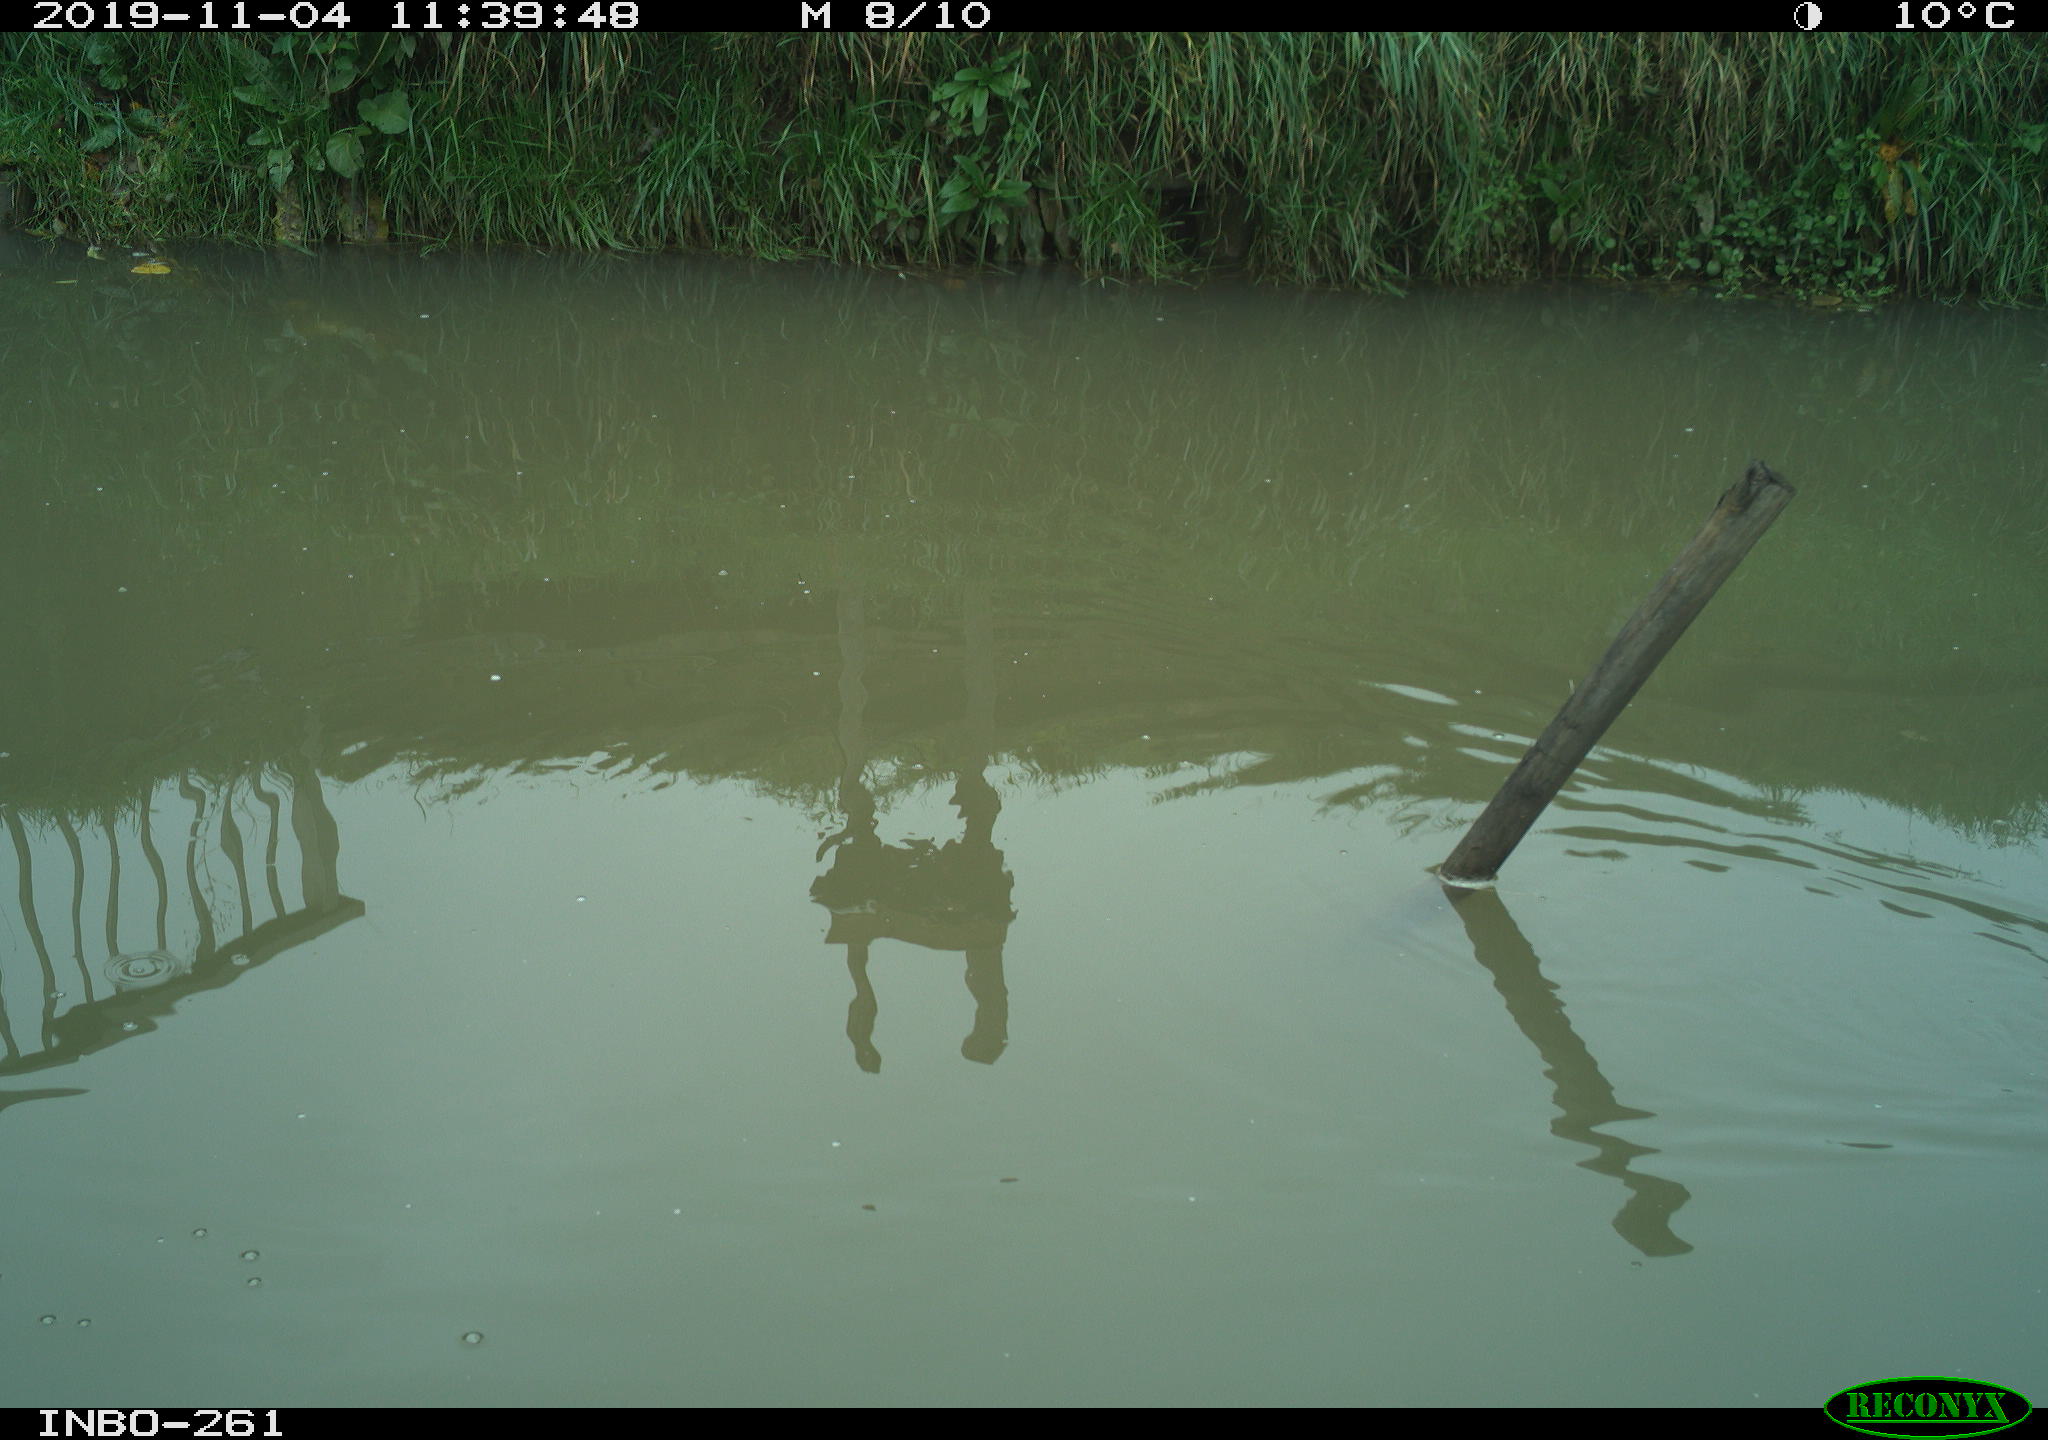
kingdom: Animalia
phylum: Chordata
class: Aves
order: Gruiformes
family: Rallidae
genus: Gallinula
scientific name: Gallinula chloropus
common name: Common moorhen
